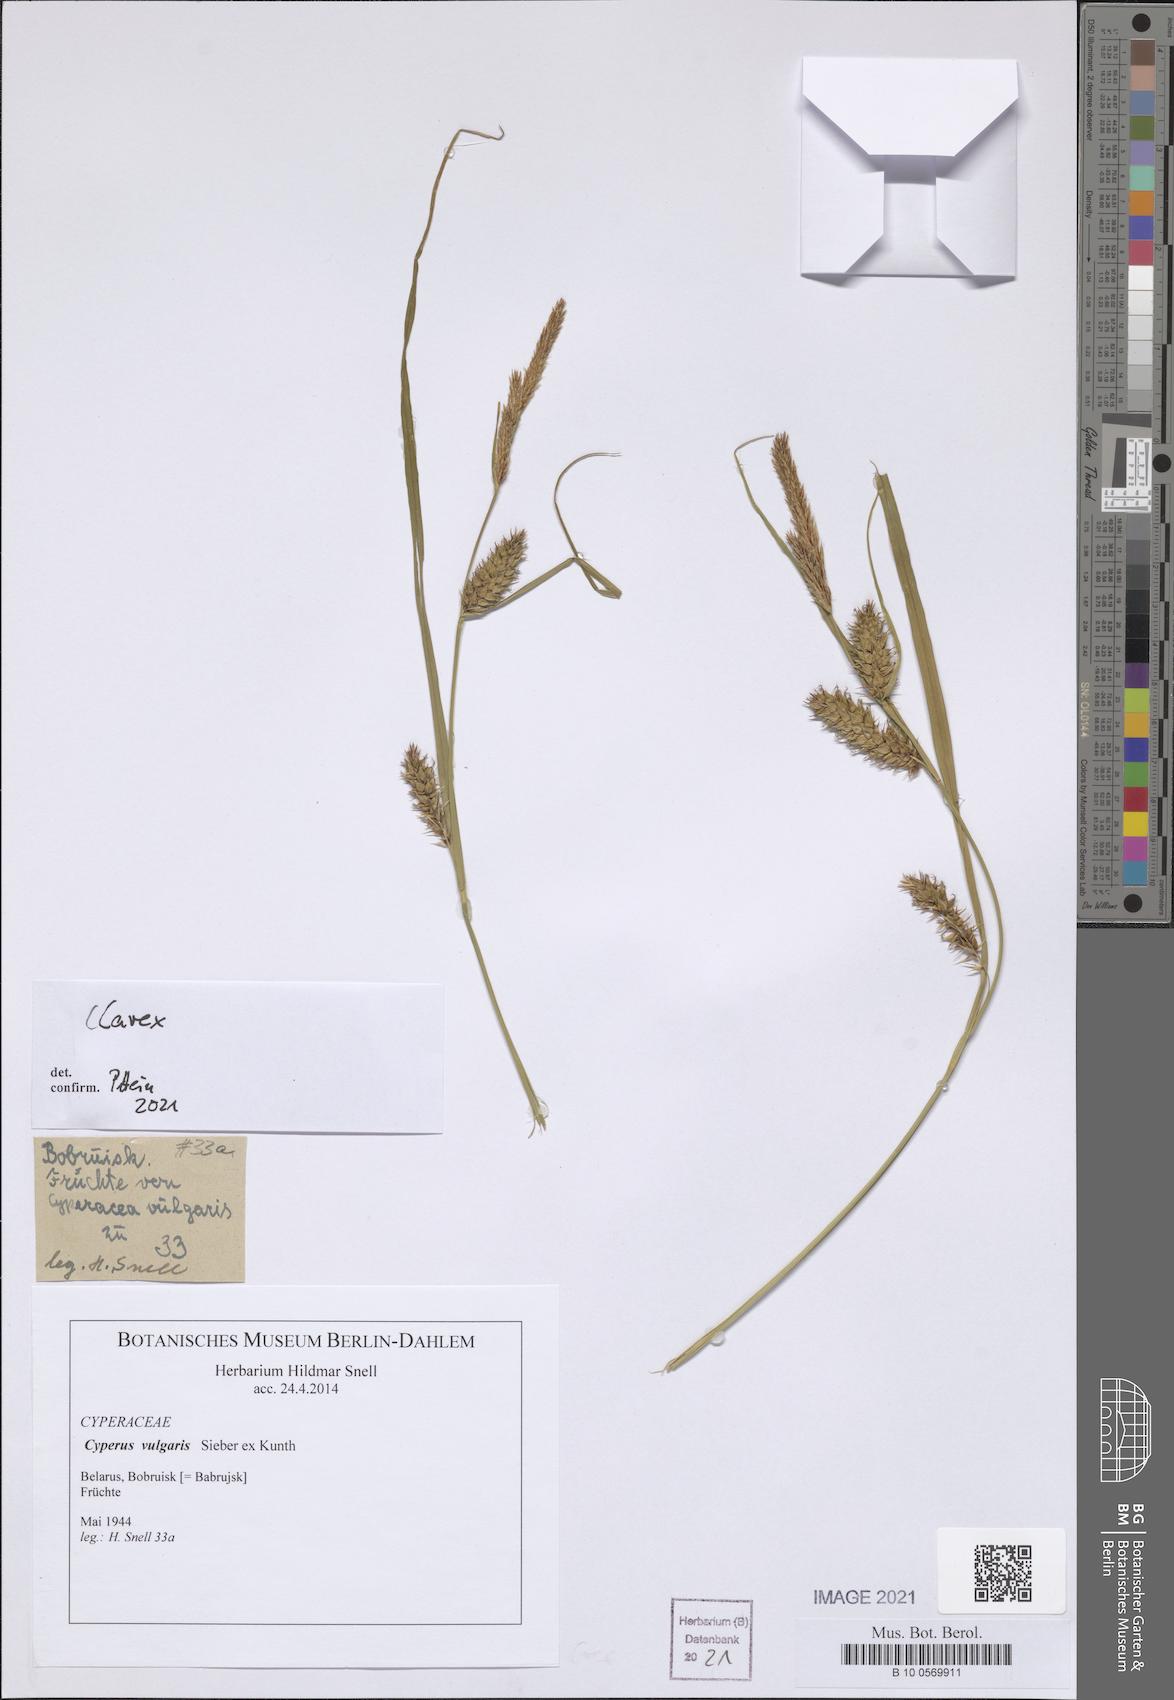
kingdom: Plantae
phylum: Tracheophyta
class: Liliopsida
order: Poales
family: Cyperaceae
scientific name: Cyperaceae
